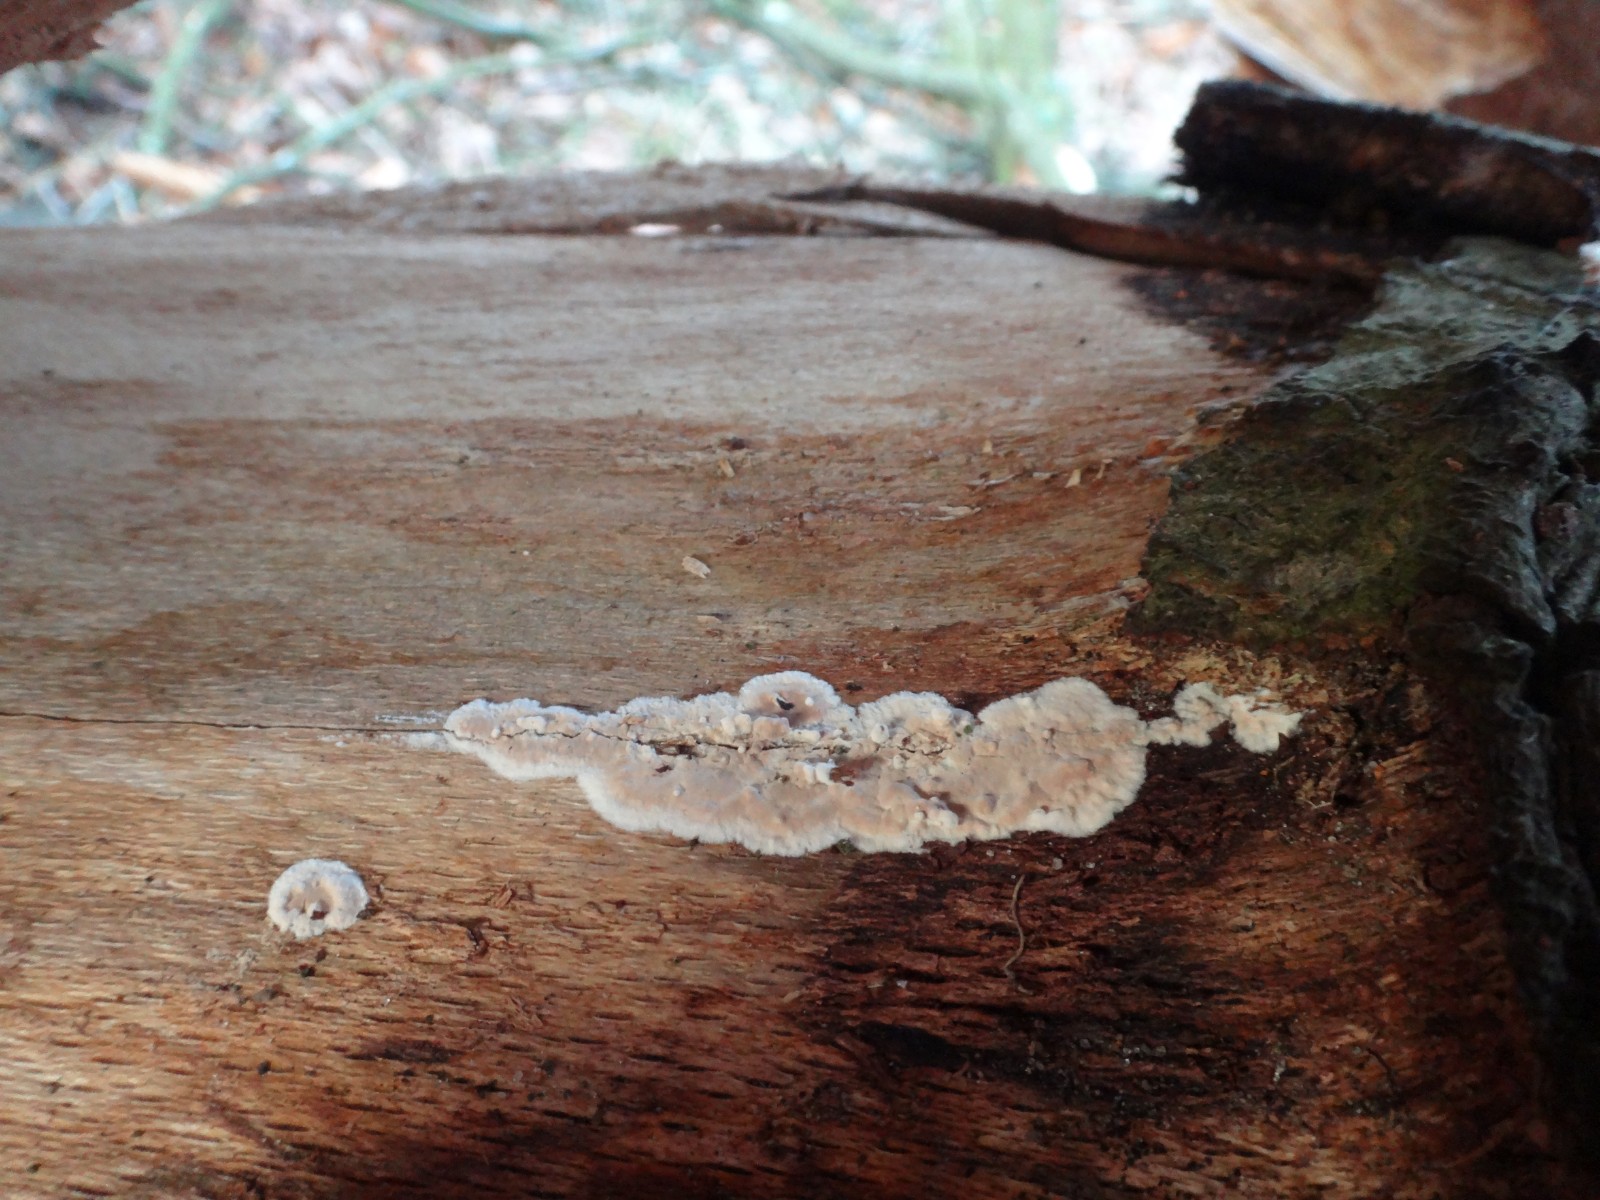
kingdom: Fungi
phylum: Basidiomycota
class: Agaricomycetes
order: Agaricales
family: Physalacriaceae
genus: Cylindrobasidium
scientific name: Cylindrobasidium evolvens
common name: sprækkehinde
